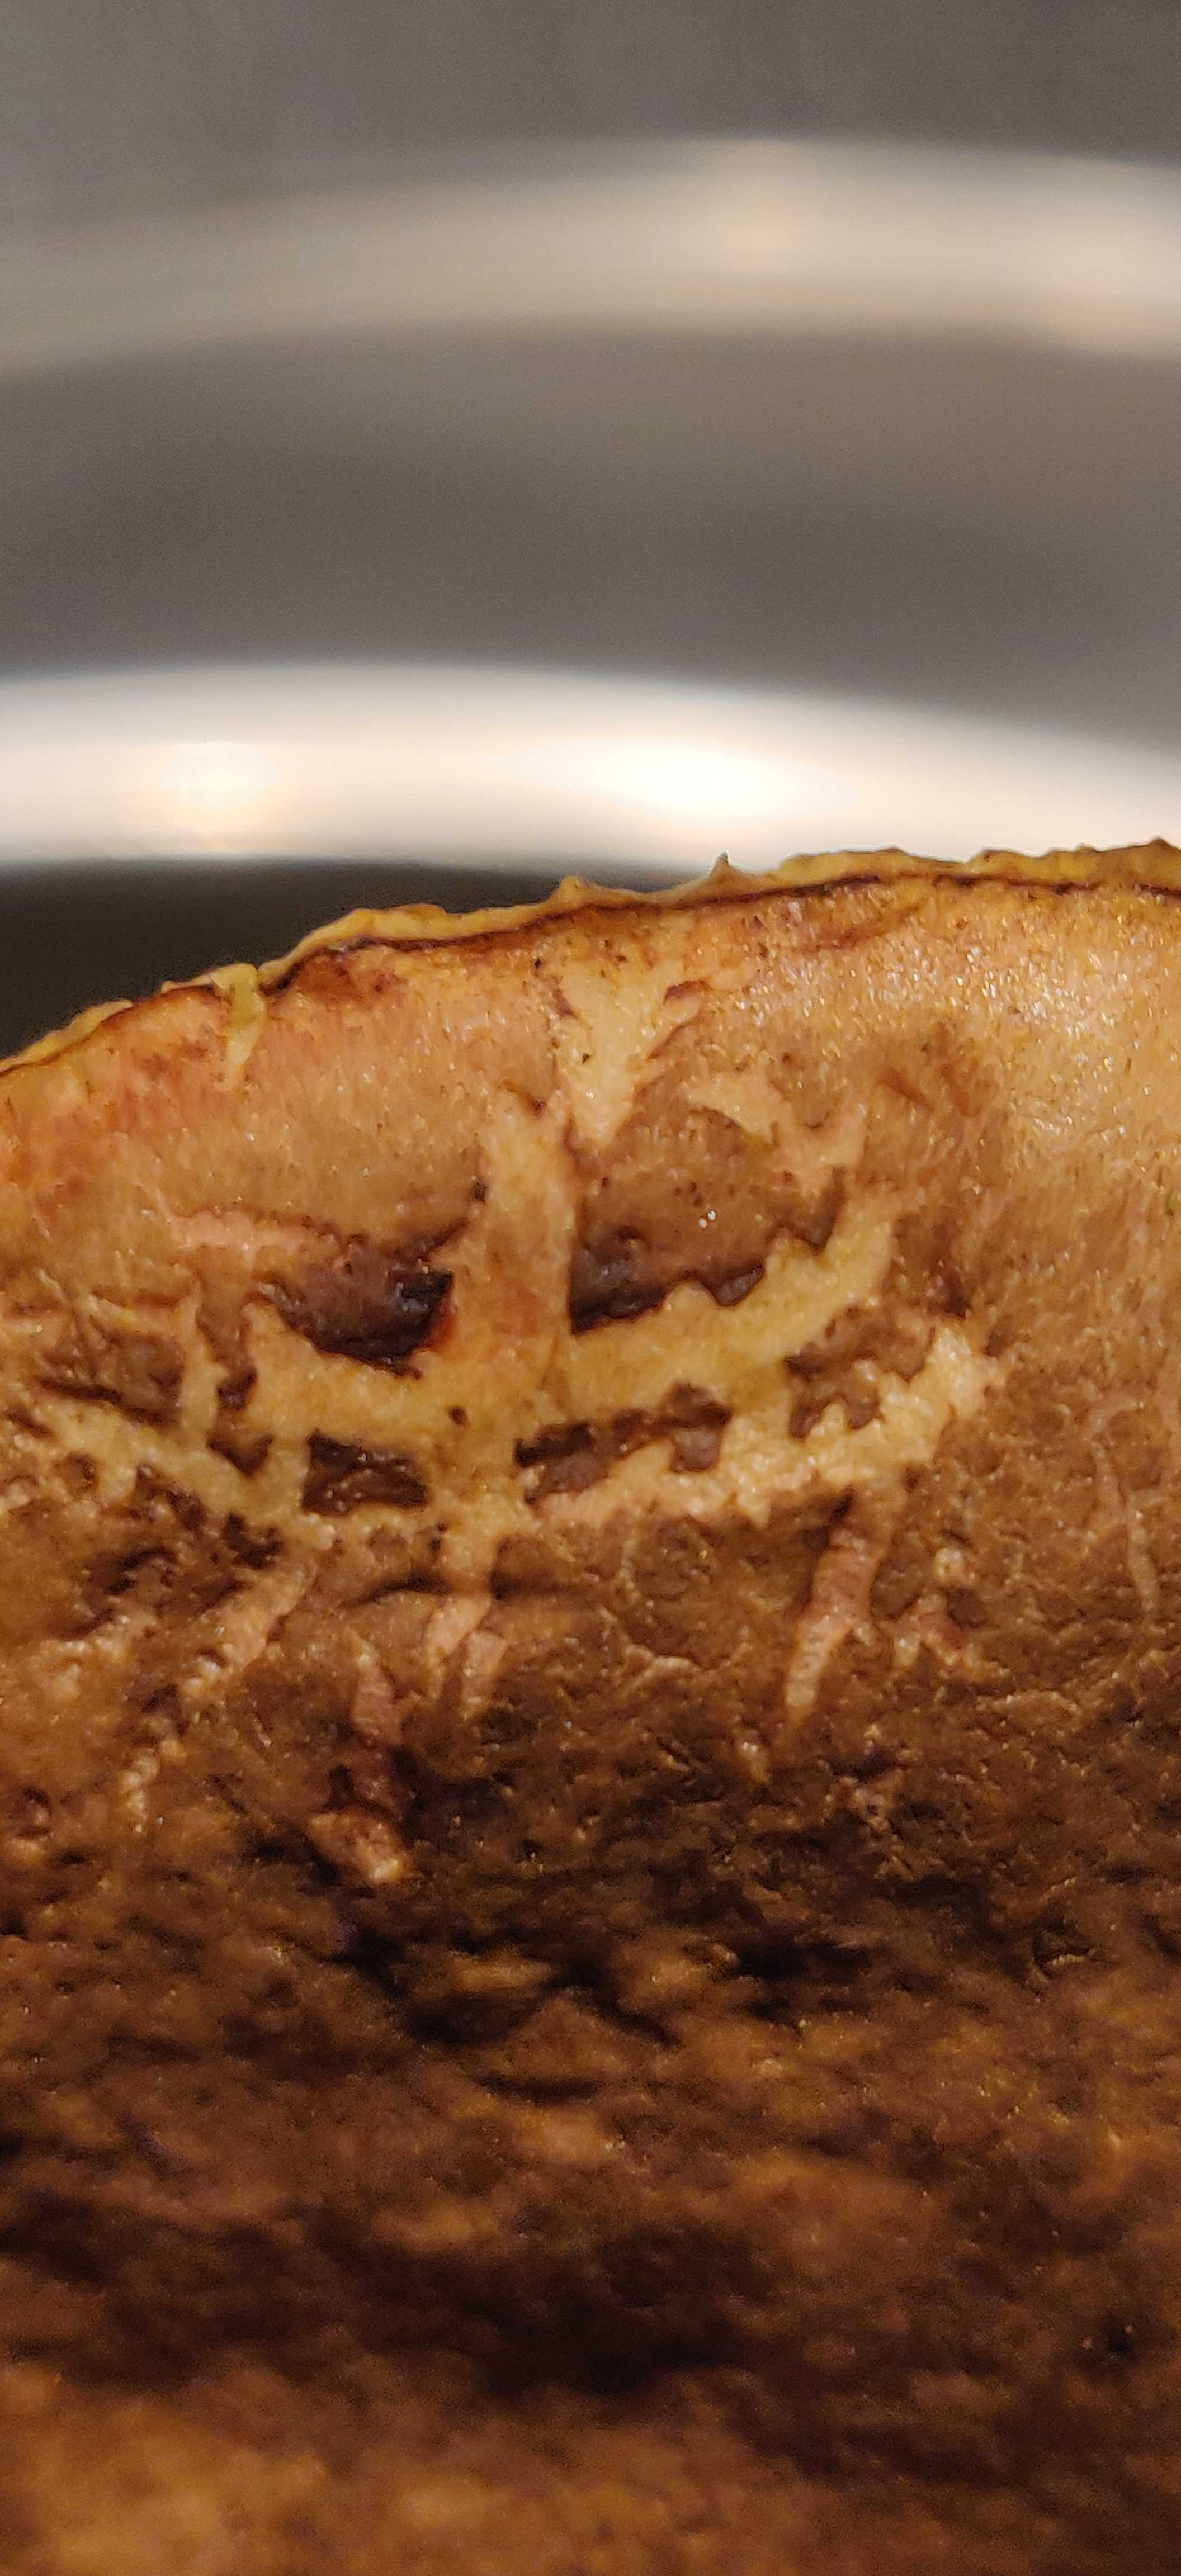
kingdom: Fungi
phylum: Basidiomycota
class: Agaricomycetes
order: Boletales
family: Boletaceae
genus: Xerocomellus
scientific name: Xerocomellus pruinatus
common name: dugget rørhat
